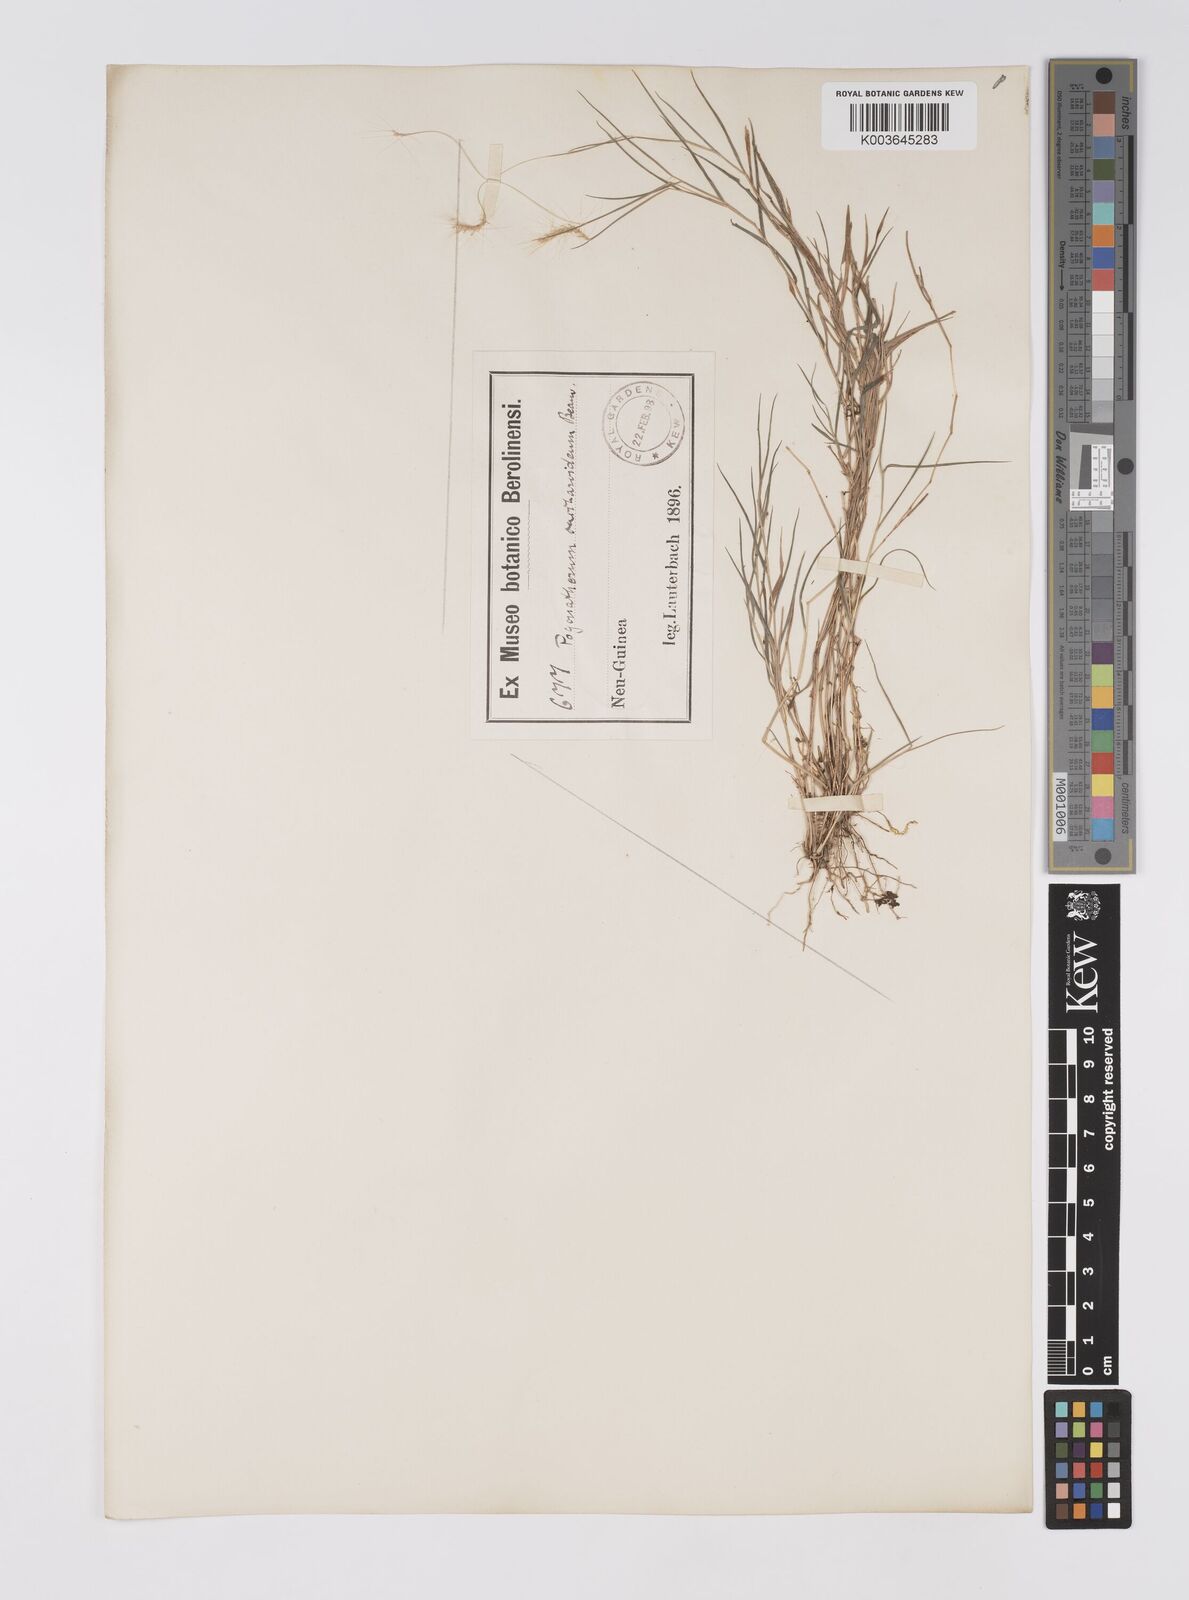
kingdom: Plantae
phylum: Tracheophyta
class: Liliopsida
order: Poales
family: Poaceae
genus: Pogonatherum
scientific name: Pogonatherum crinitum
